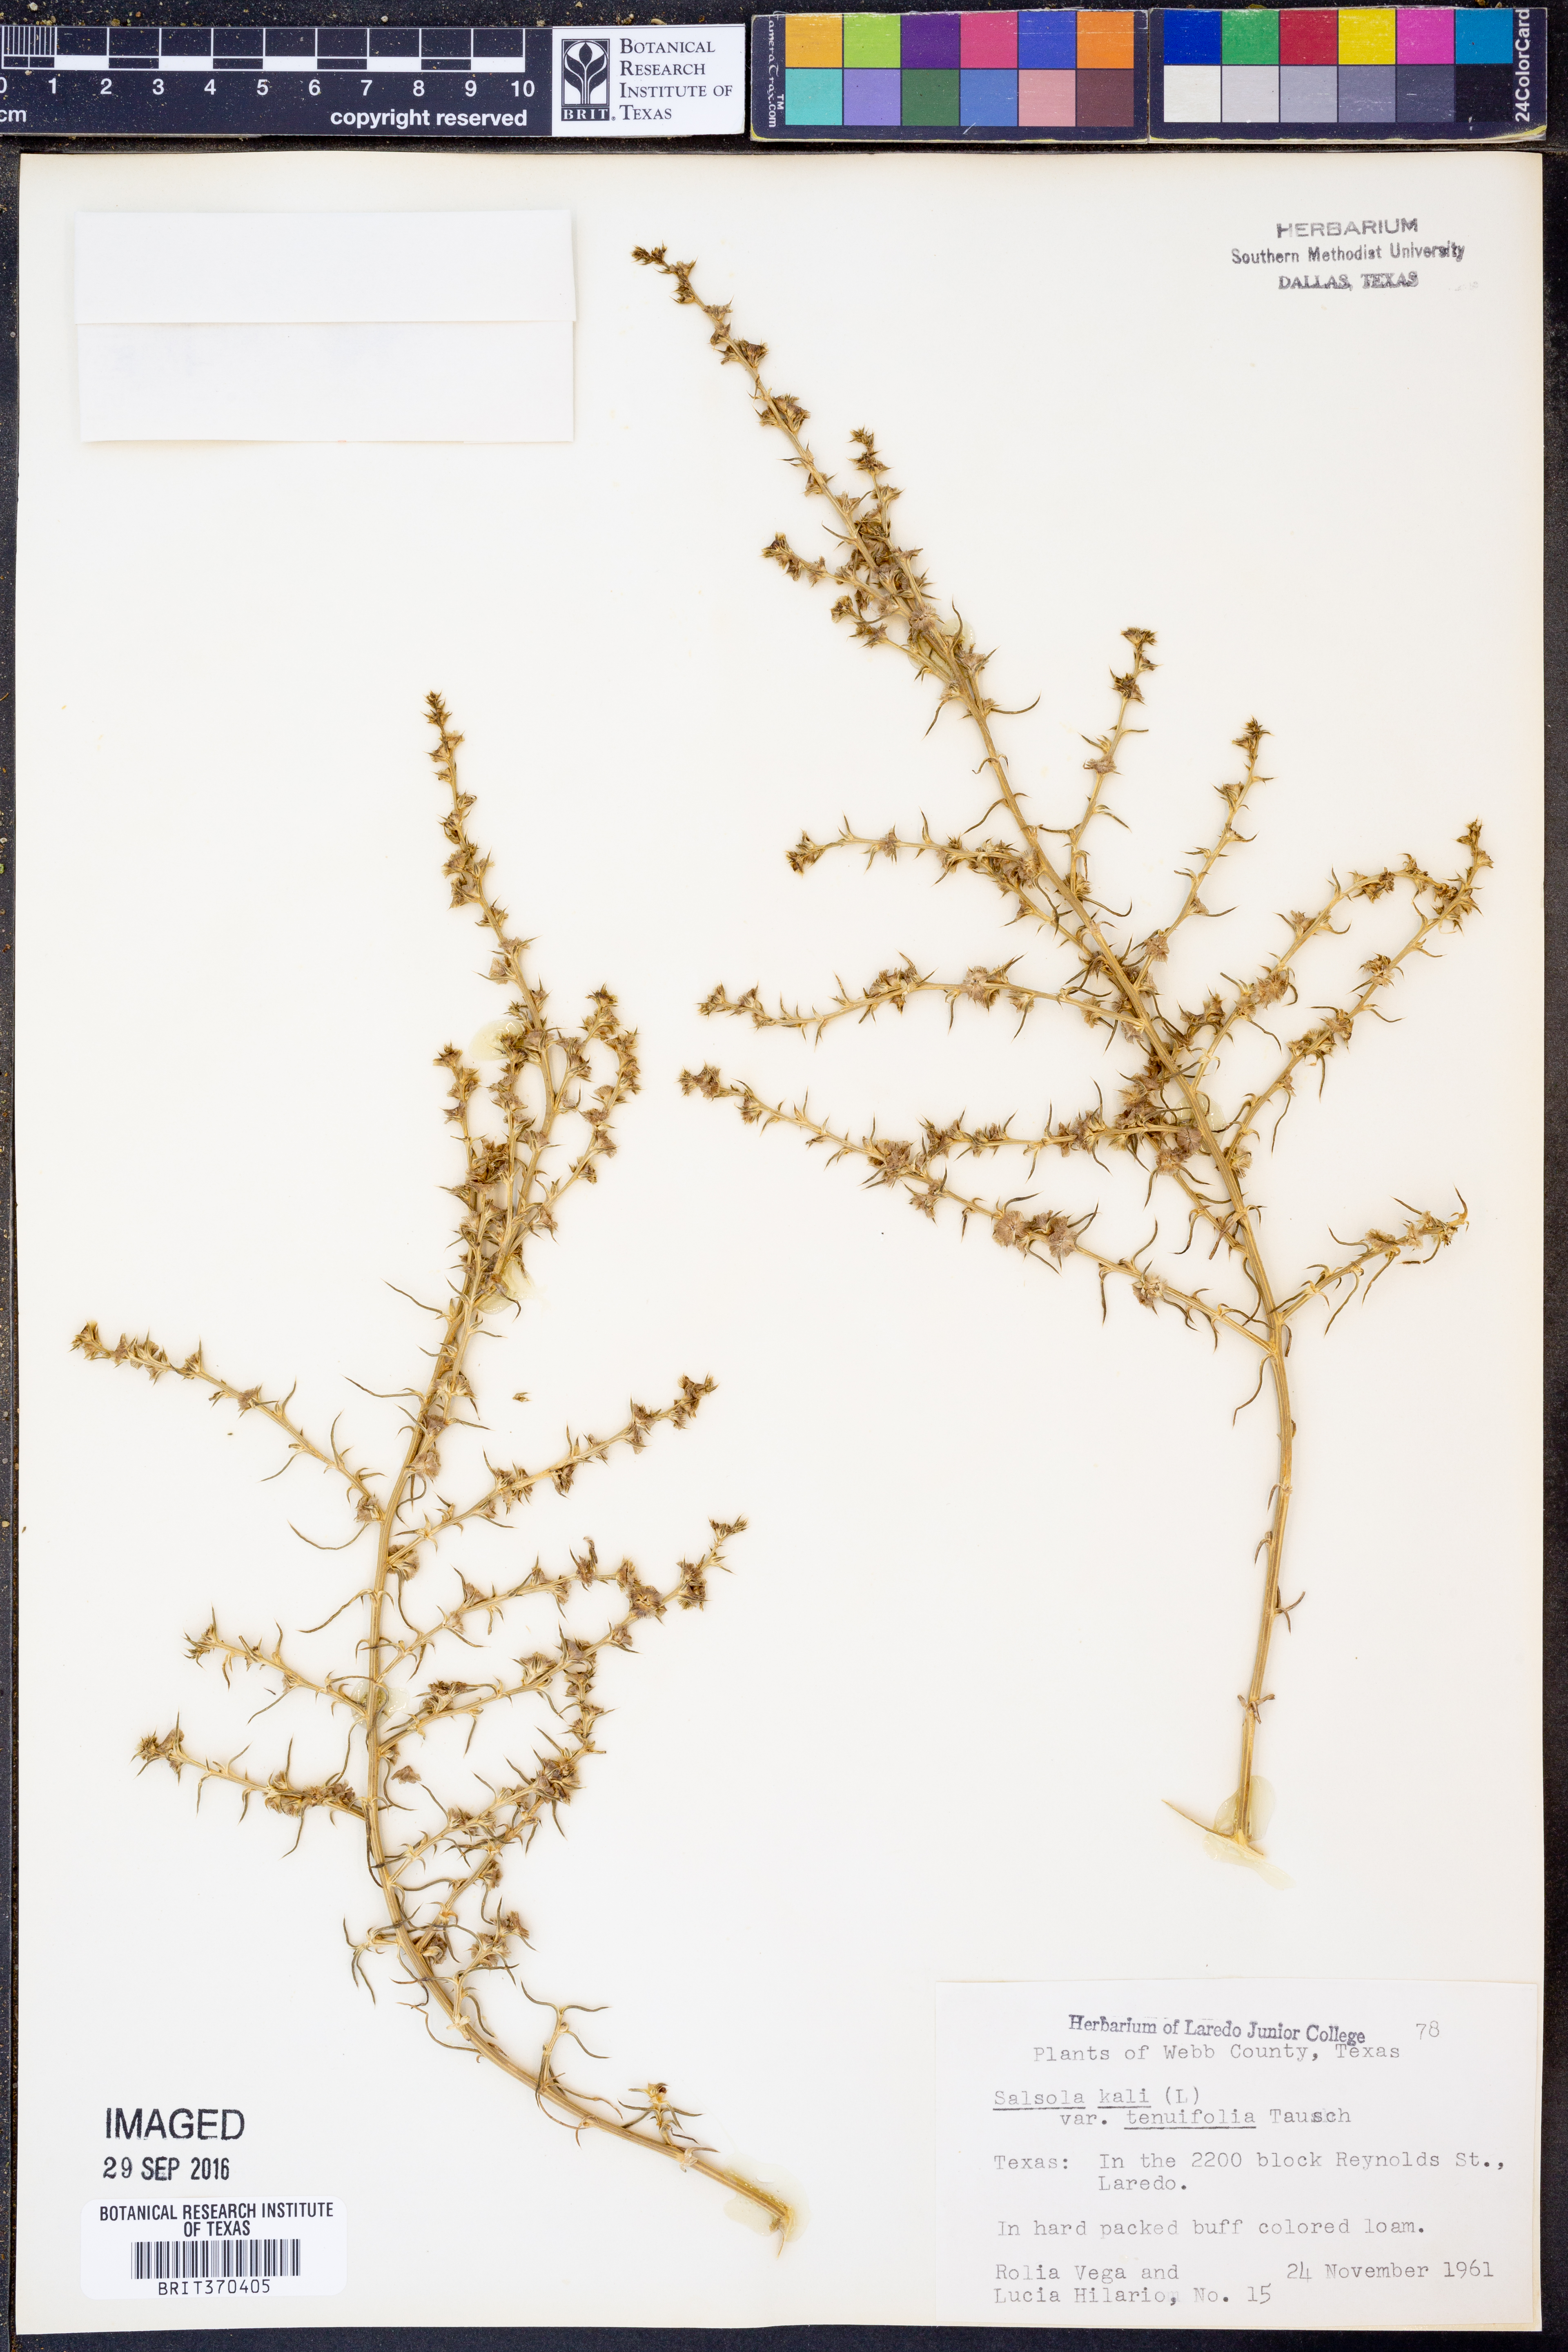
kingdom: Plantae
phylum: Tracheophyta
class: Magnoliopsida
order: Caryophyllales
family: Amaranthaceae
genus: Salsola
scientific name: Salsola tragus
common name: Prickly russian thistle
